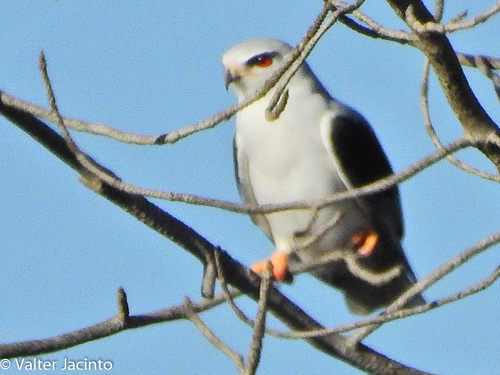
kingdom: Animalia
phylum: Chordata
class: Aves
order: Accipitriformes
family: Accipitridae
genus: Elanus
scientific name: Elanus caeruleus
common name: Black-winged kite
